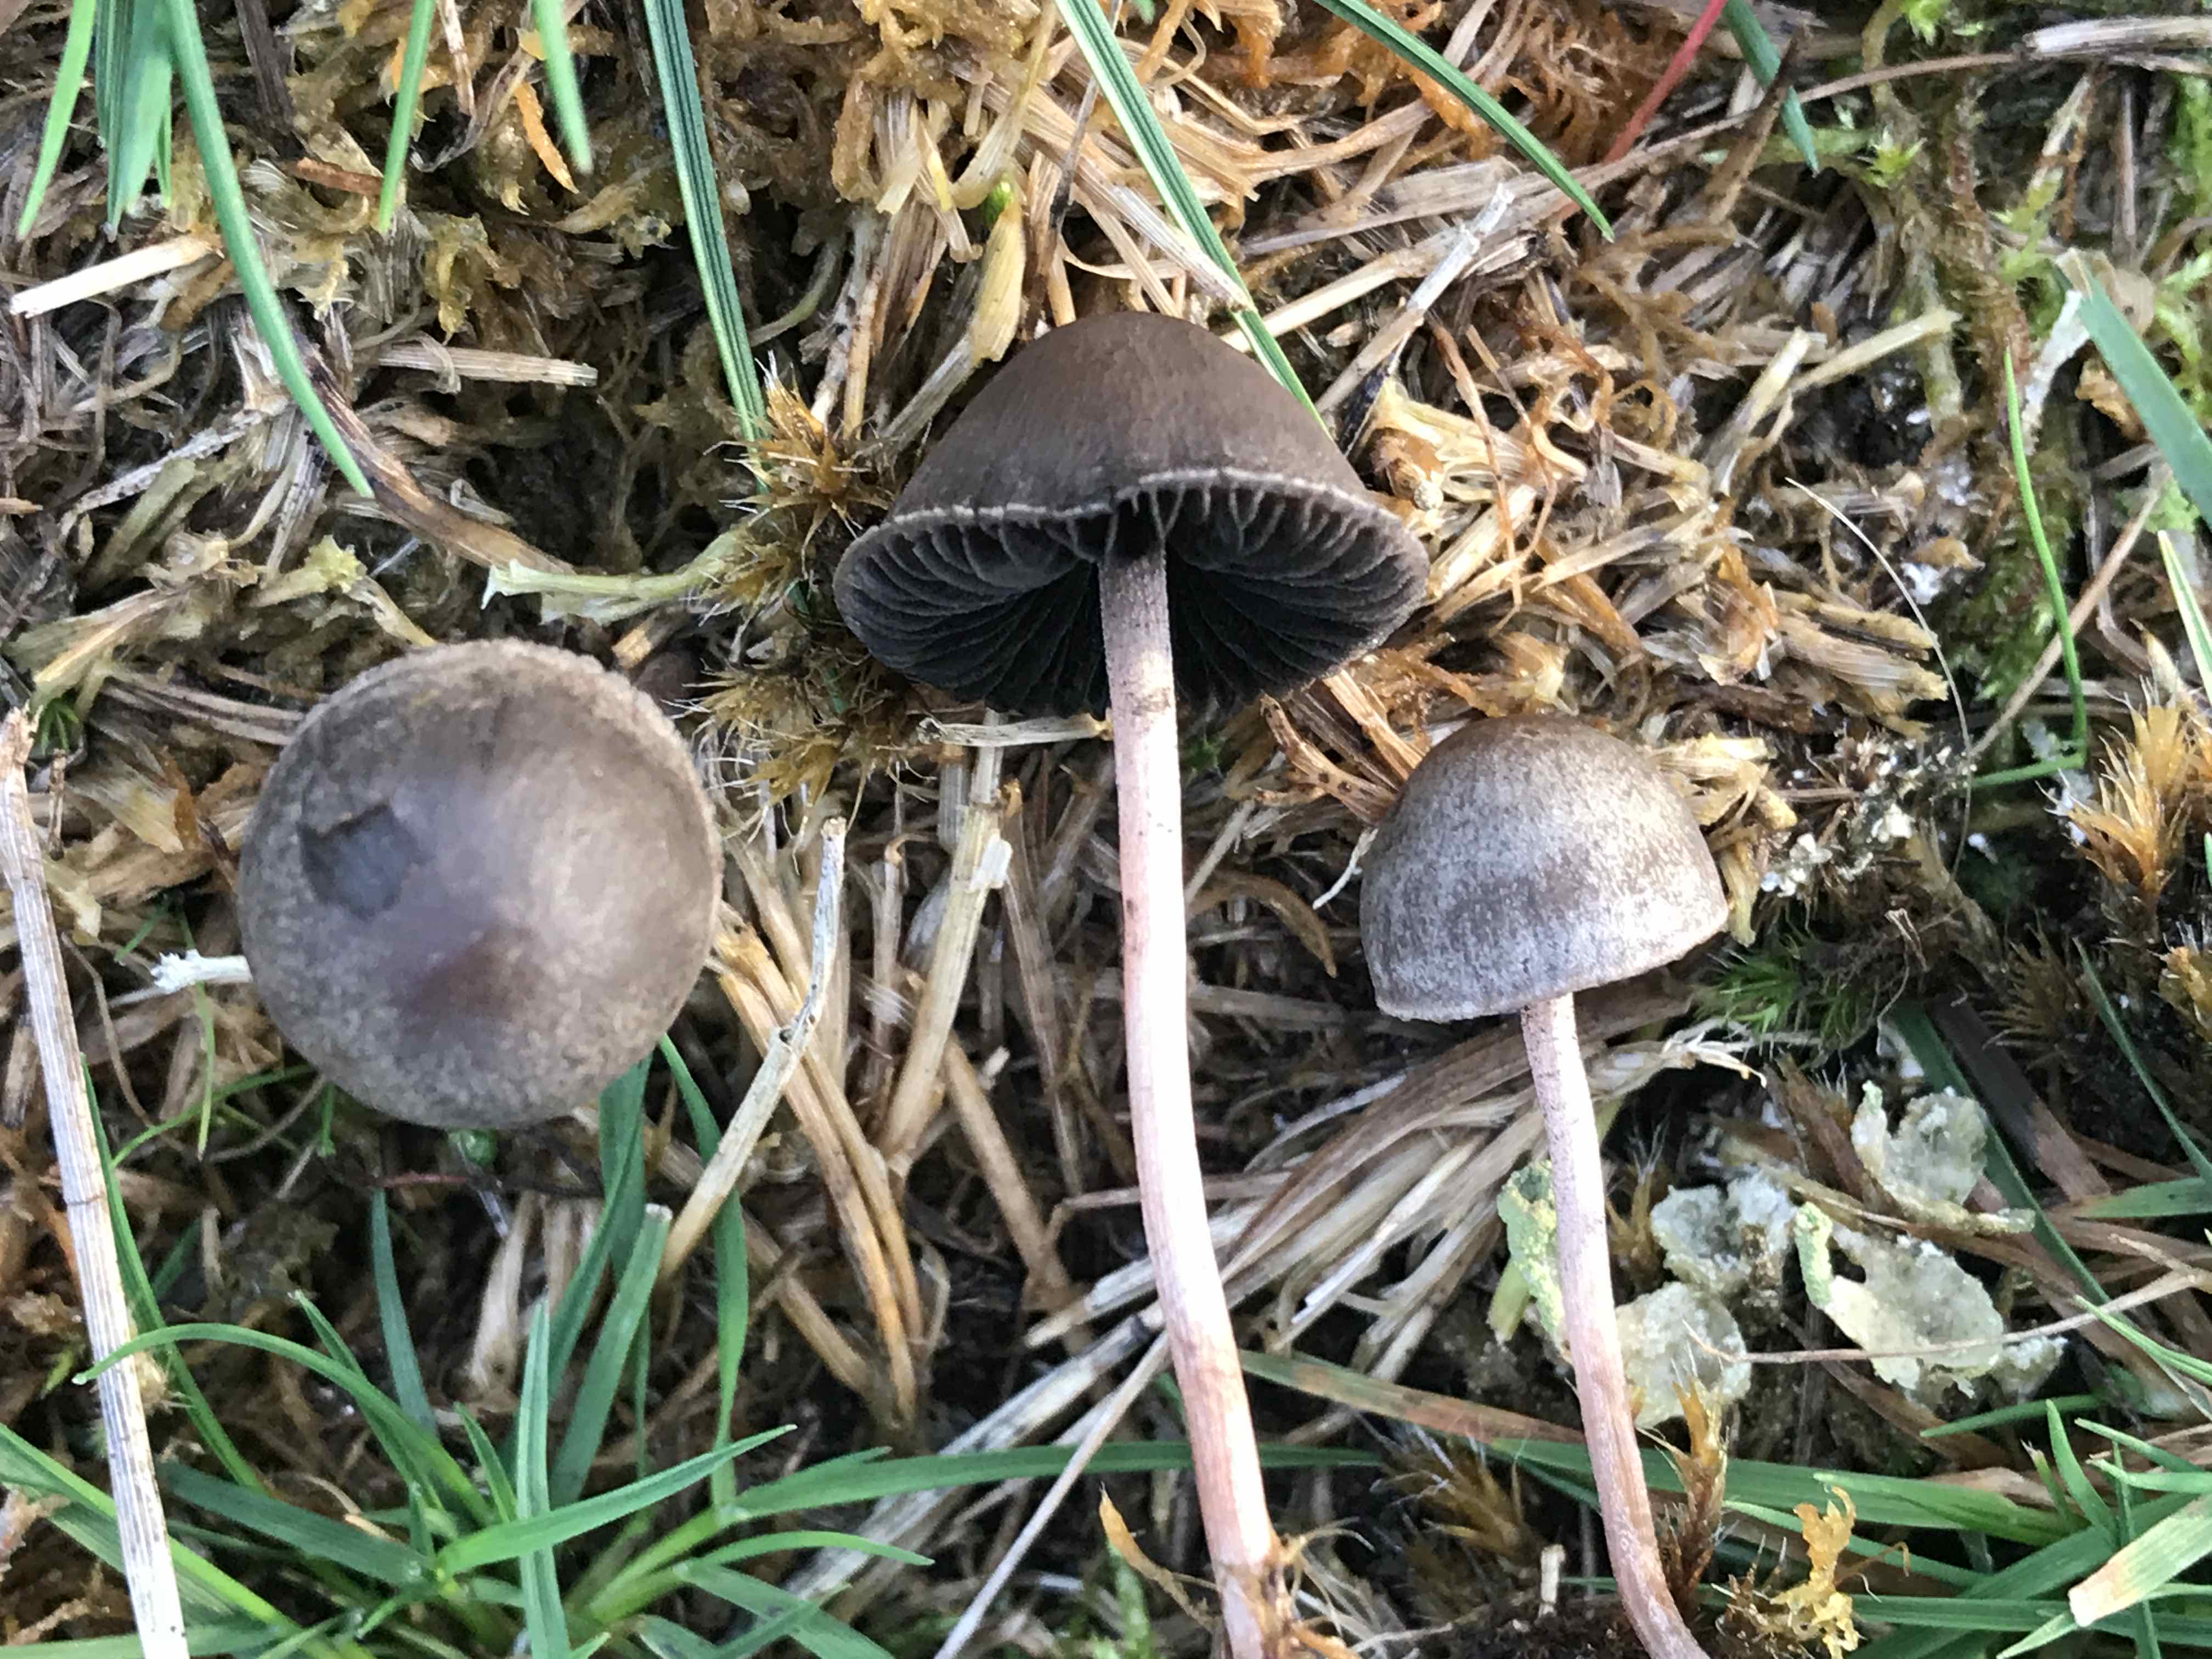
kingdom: Fungi
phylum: Basidiomycota
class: Agaricomycetes
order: Agaricales
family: Bolbitiaceae
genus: Panaeolus
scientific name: Panaeolus
